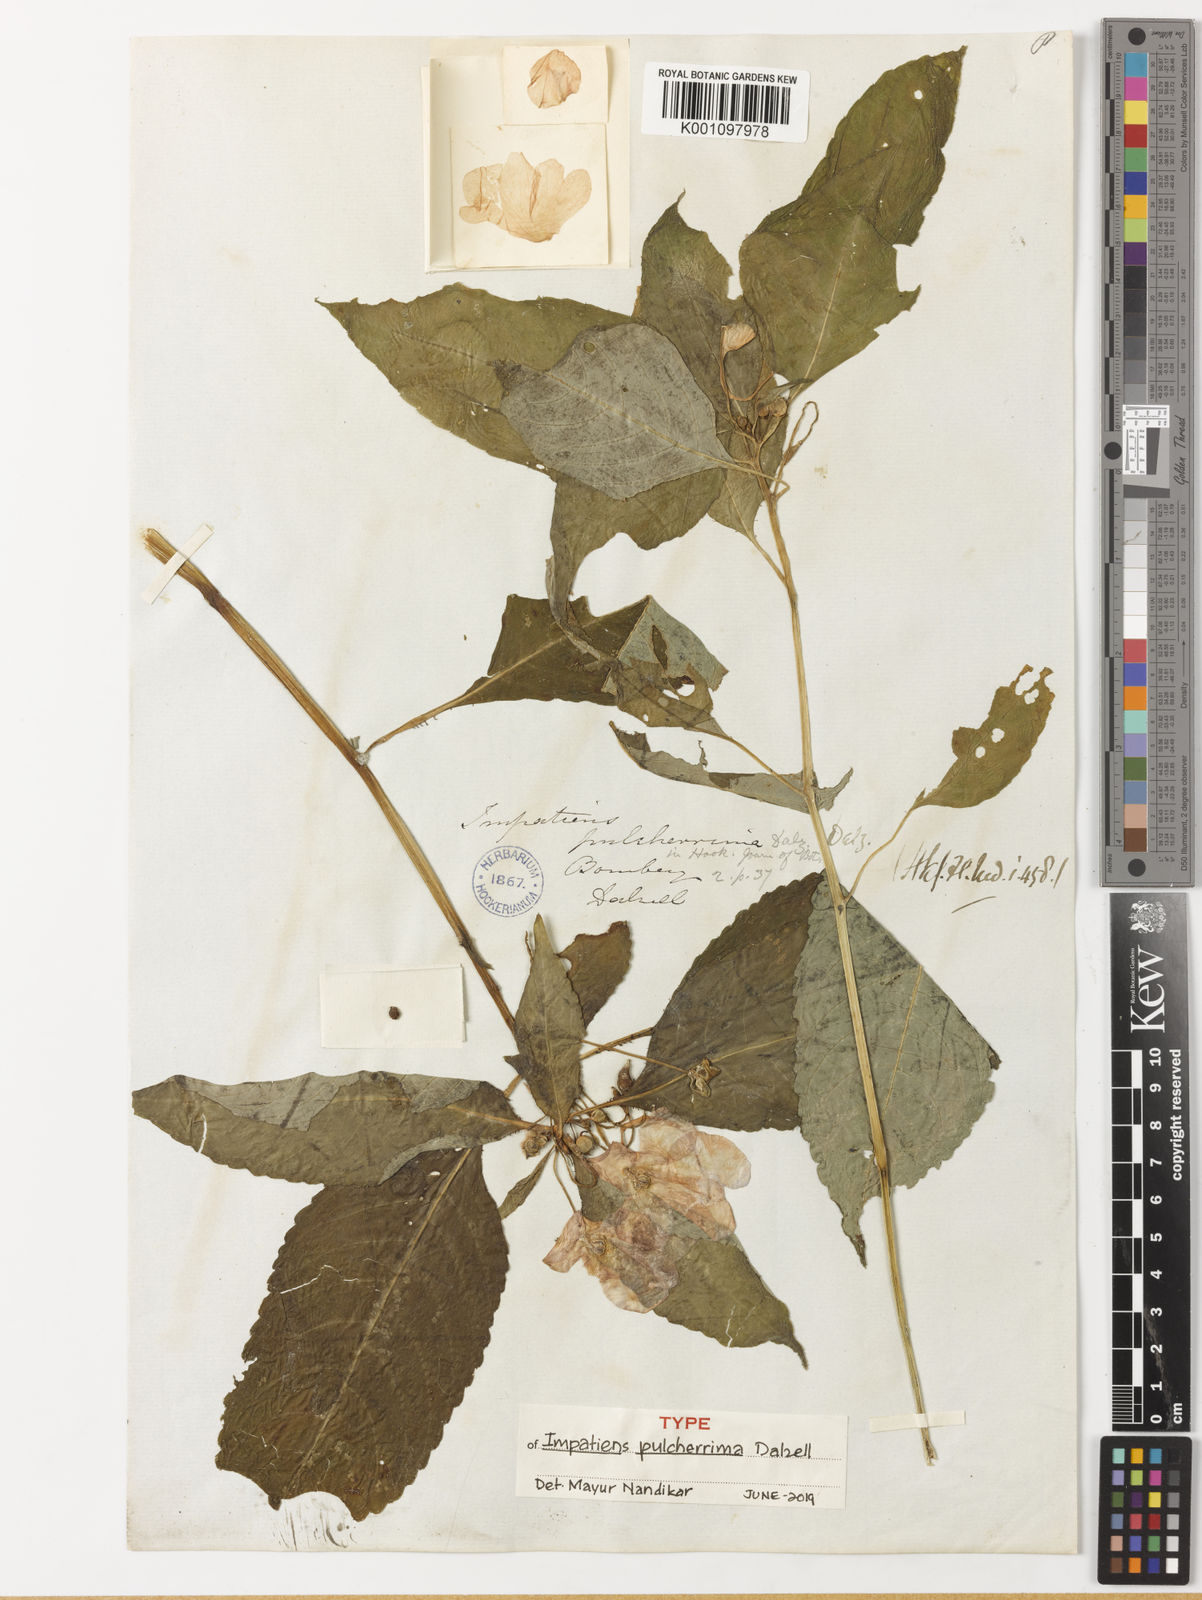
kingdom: Plantae
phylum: Tracheophyta
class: Magnoliopsida
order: Ericales
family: Balsaminaceae
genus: Impatiens
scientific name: Impatiens pulcherrima
